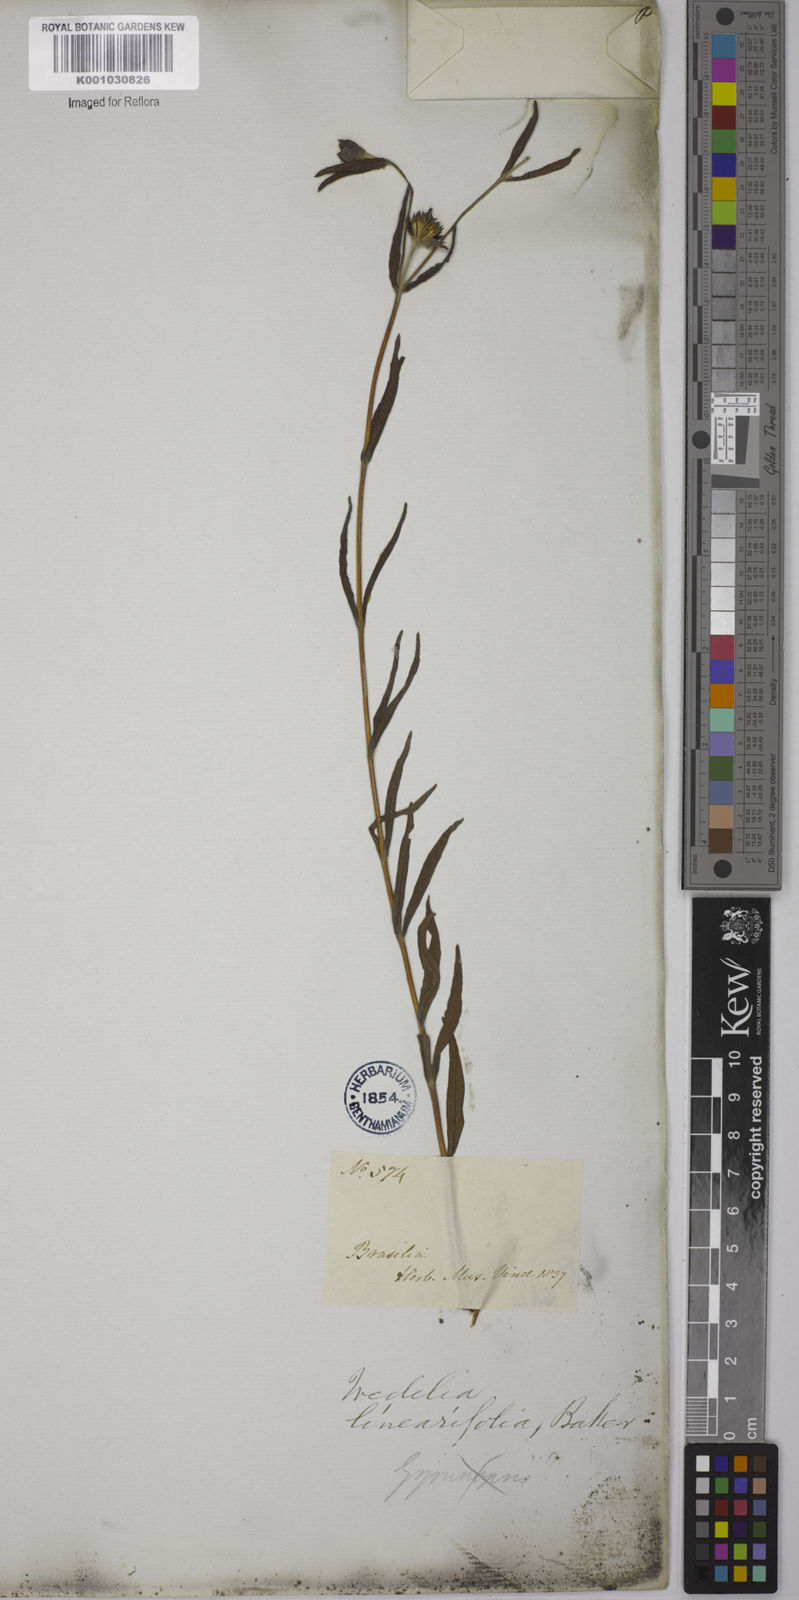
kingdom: Plantae
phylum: Tracheophyta
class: Magnoliopsida
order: Asterales
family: Asteraceae
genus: Aspilia
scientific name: Aspilia angustifolia
